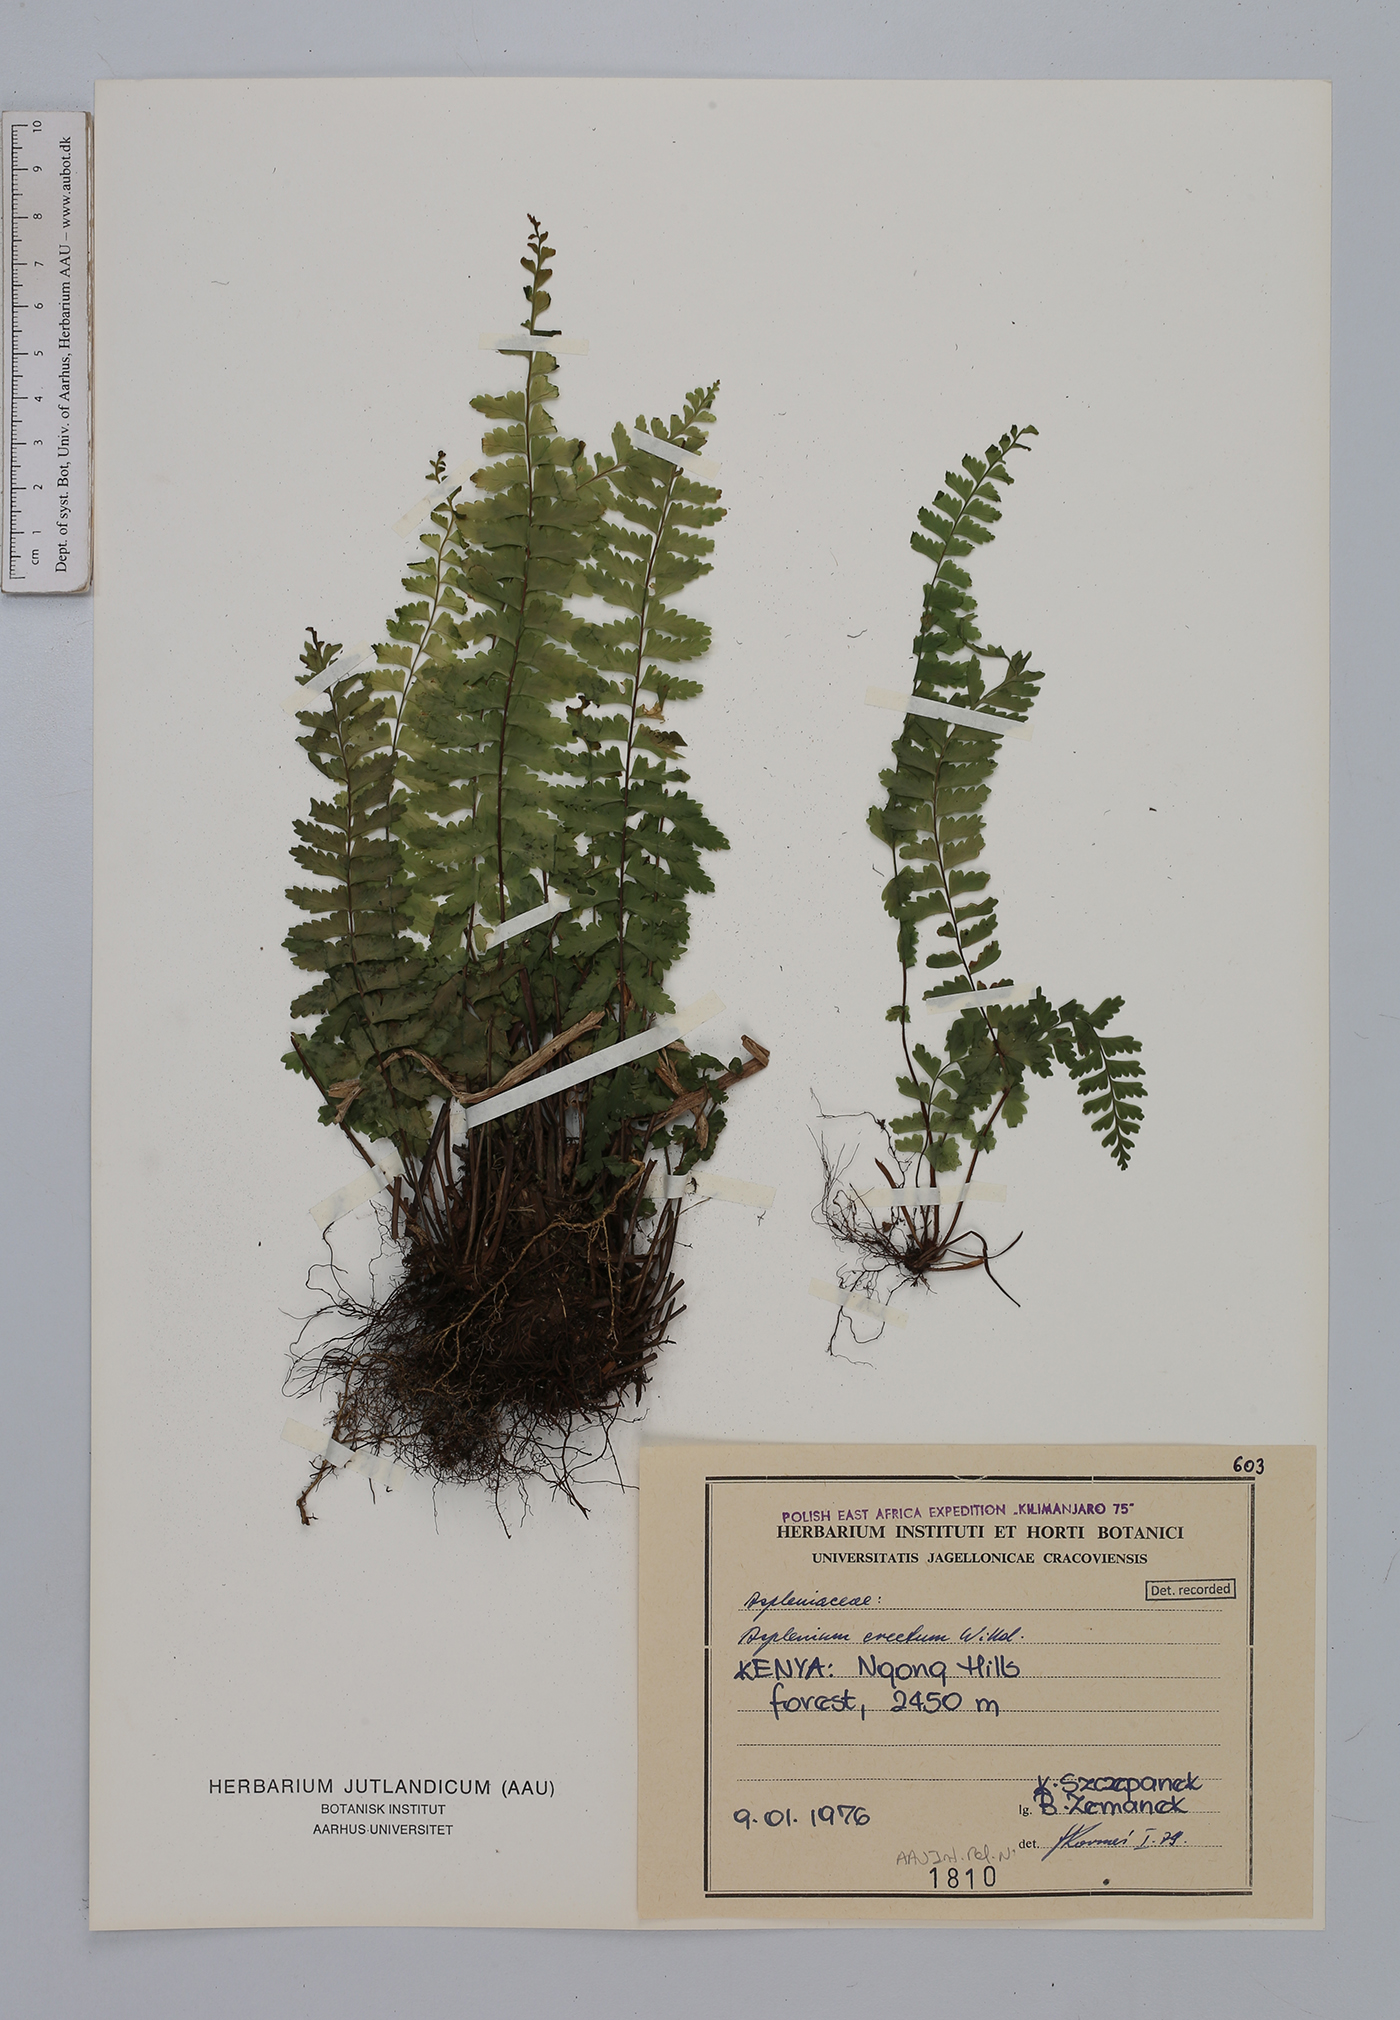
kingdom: Plantae
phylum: Tracheophyta
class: Polypodiopsida
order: Polypodiales
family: Aspleniaceae
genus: Asplenium
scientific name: Asplenium erectum
